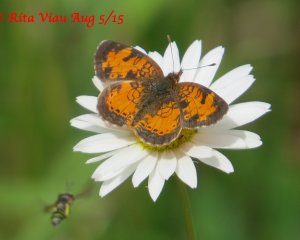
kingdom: Animalia
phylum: Arthropoda
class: Insecta
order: Lepidoptera
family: Nymphalidae
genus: Phyciodes
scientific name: Phyciodes tharos
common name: Northern Crescent
